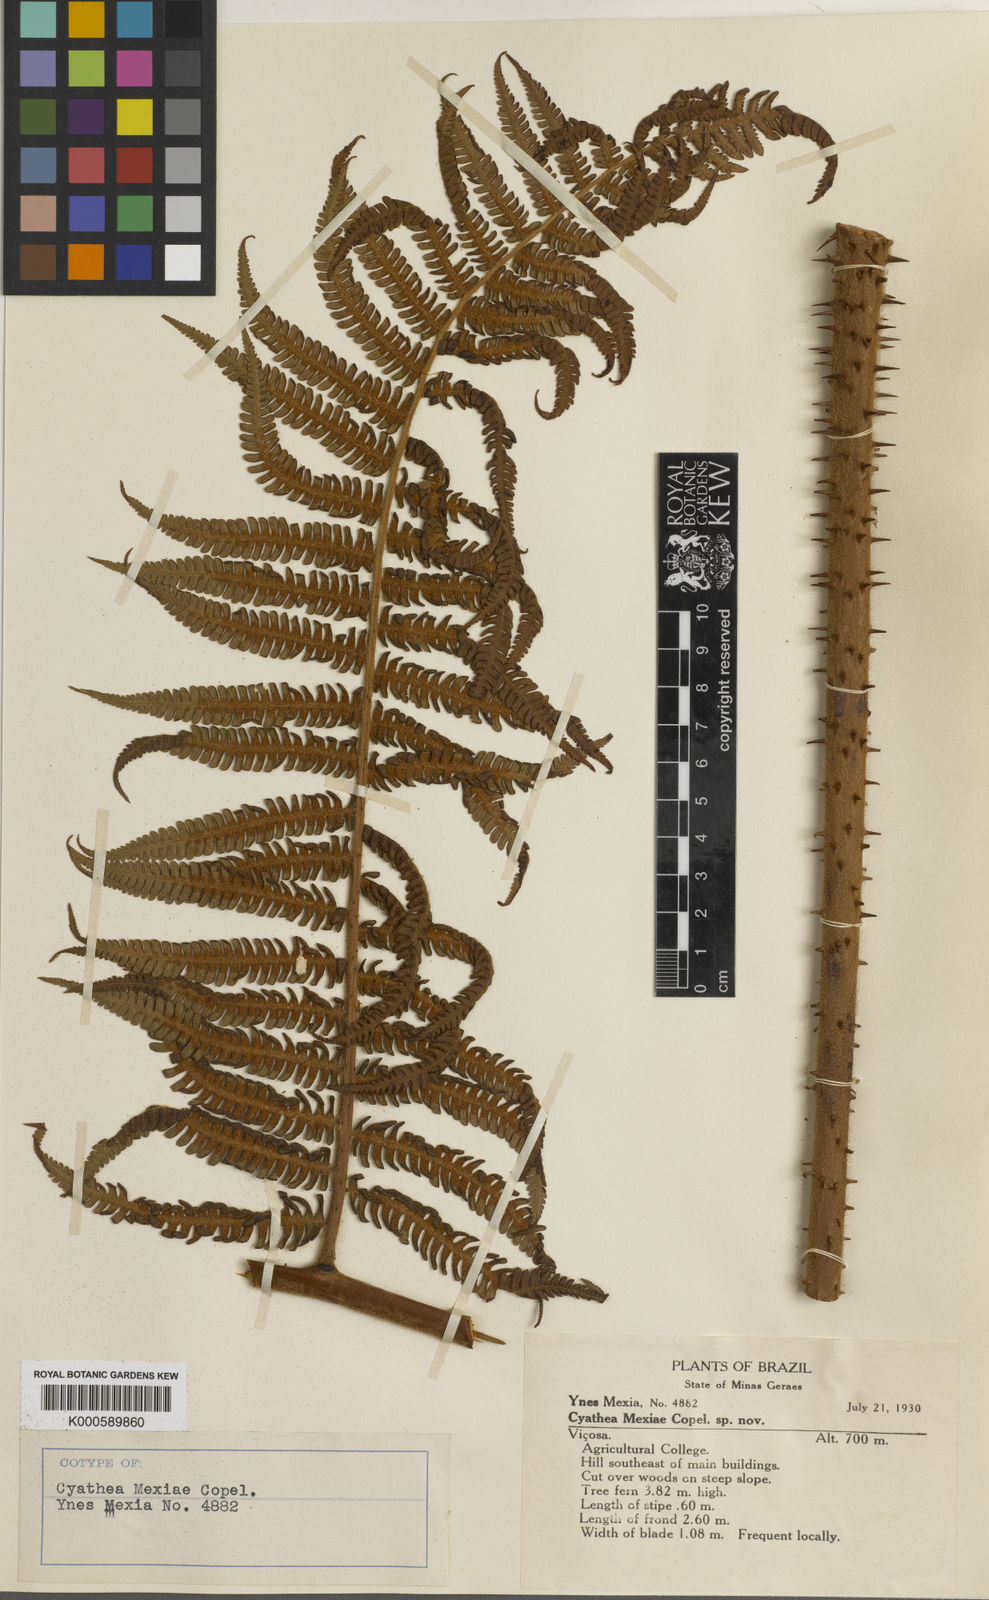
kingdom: Plantae
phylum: Tracheophyta
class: Polypodiopsida
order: Cyatheales
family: Cyatheaceae
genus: Sphaeropteris
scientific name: Sphaeropteris gardneri
